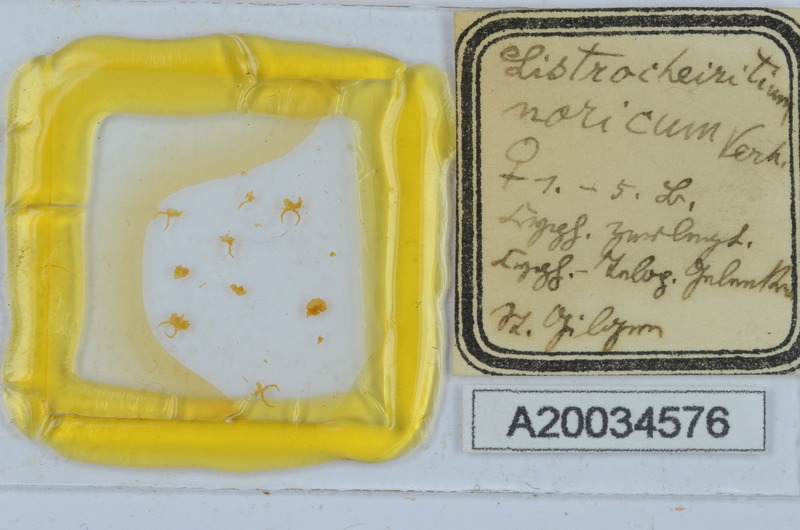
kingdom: Animalia
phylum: Arthropoda
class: Diplopoda
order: Chordeumatida
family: Craspedosomatidae
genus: Listrocheiritium
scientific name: Listrocheiritium noricum
